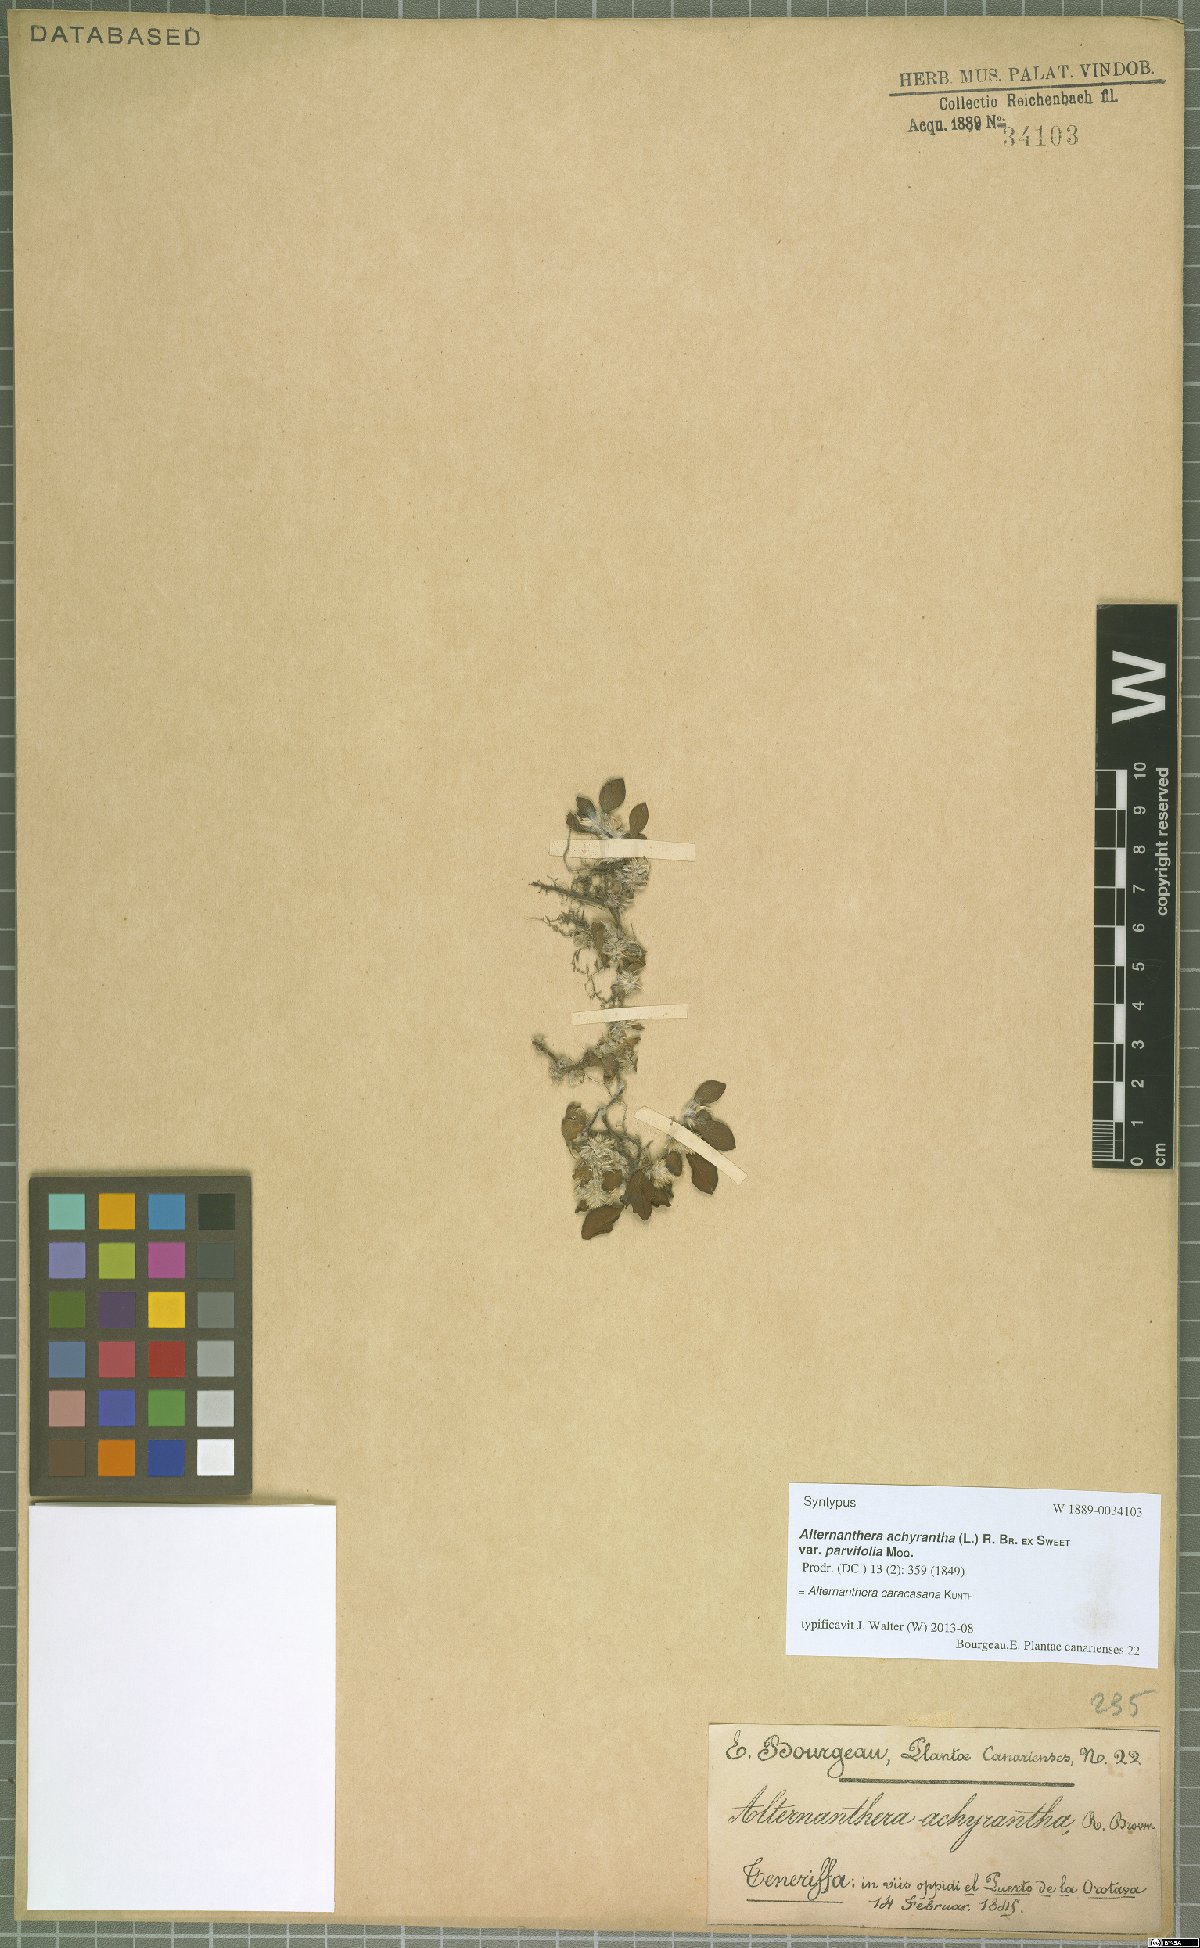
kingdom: Plantae
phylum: Tracheophyta
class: Magnoliopsida
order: Caryophyllales
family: Amaranthaceae
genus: Alternanthera
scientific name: Alternanthera caracasana
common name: Washerwoman
